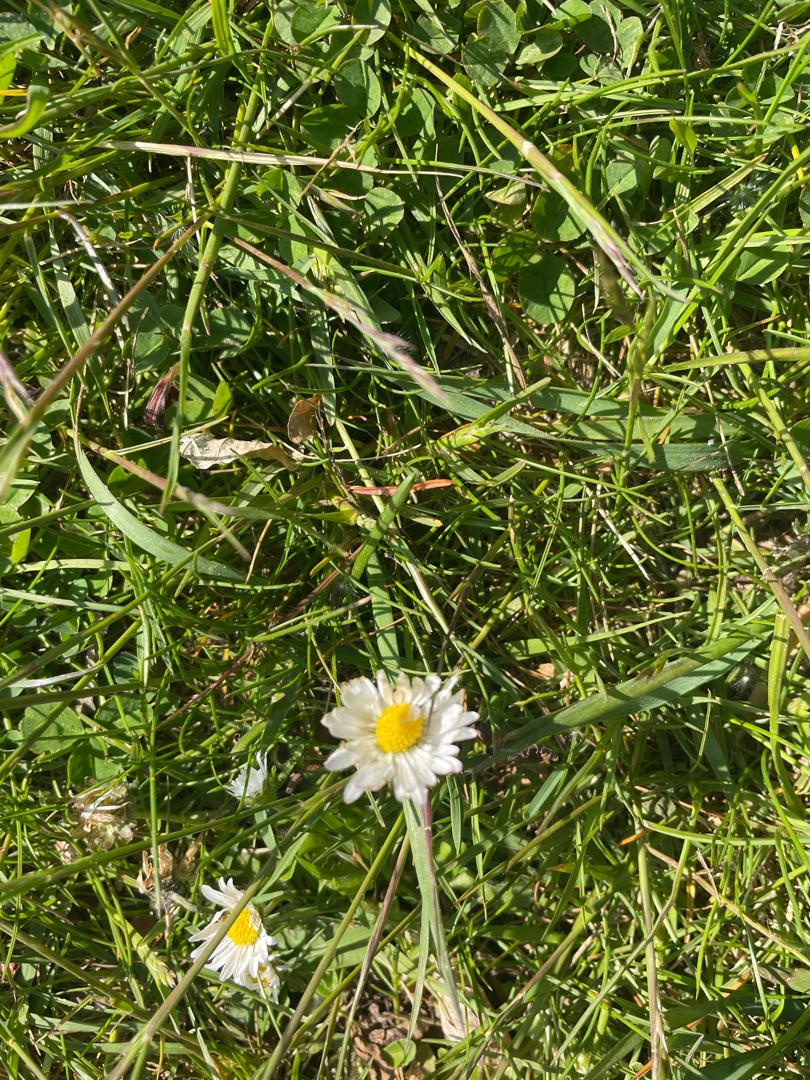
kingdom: Plantae
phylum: Tracheophyta
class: Magnoliopsida
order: Asterales
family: Asteraceae
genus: Bellis
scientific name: Bellis perennis
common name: Tusindfryd
